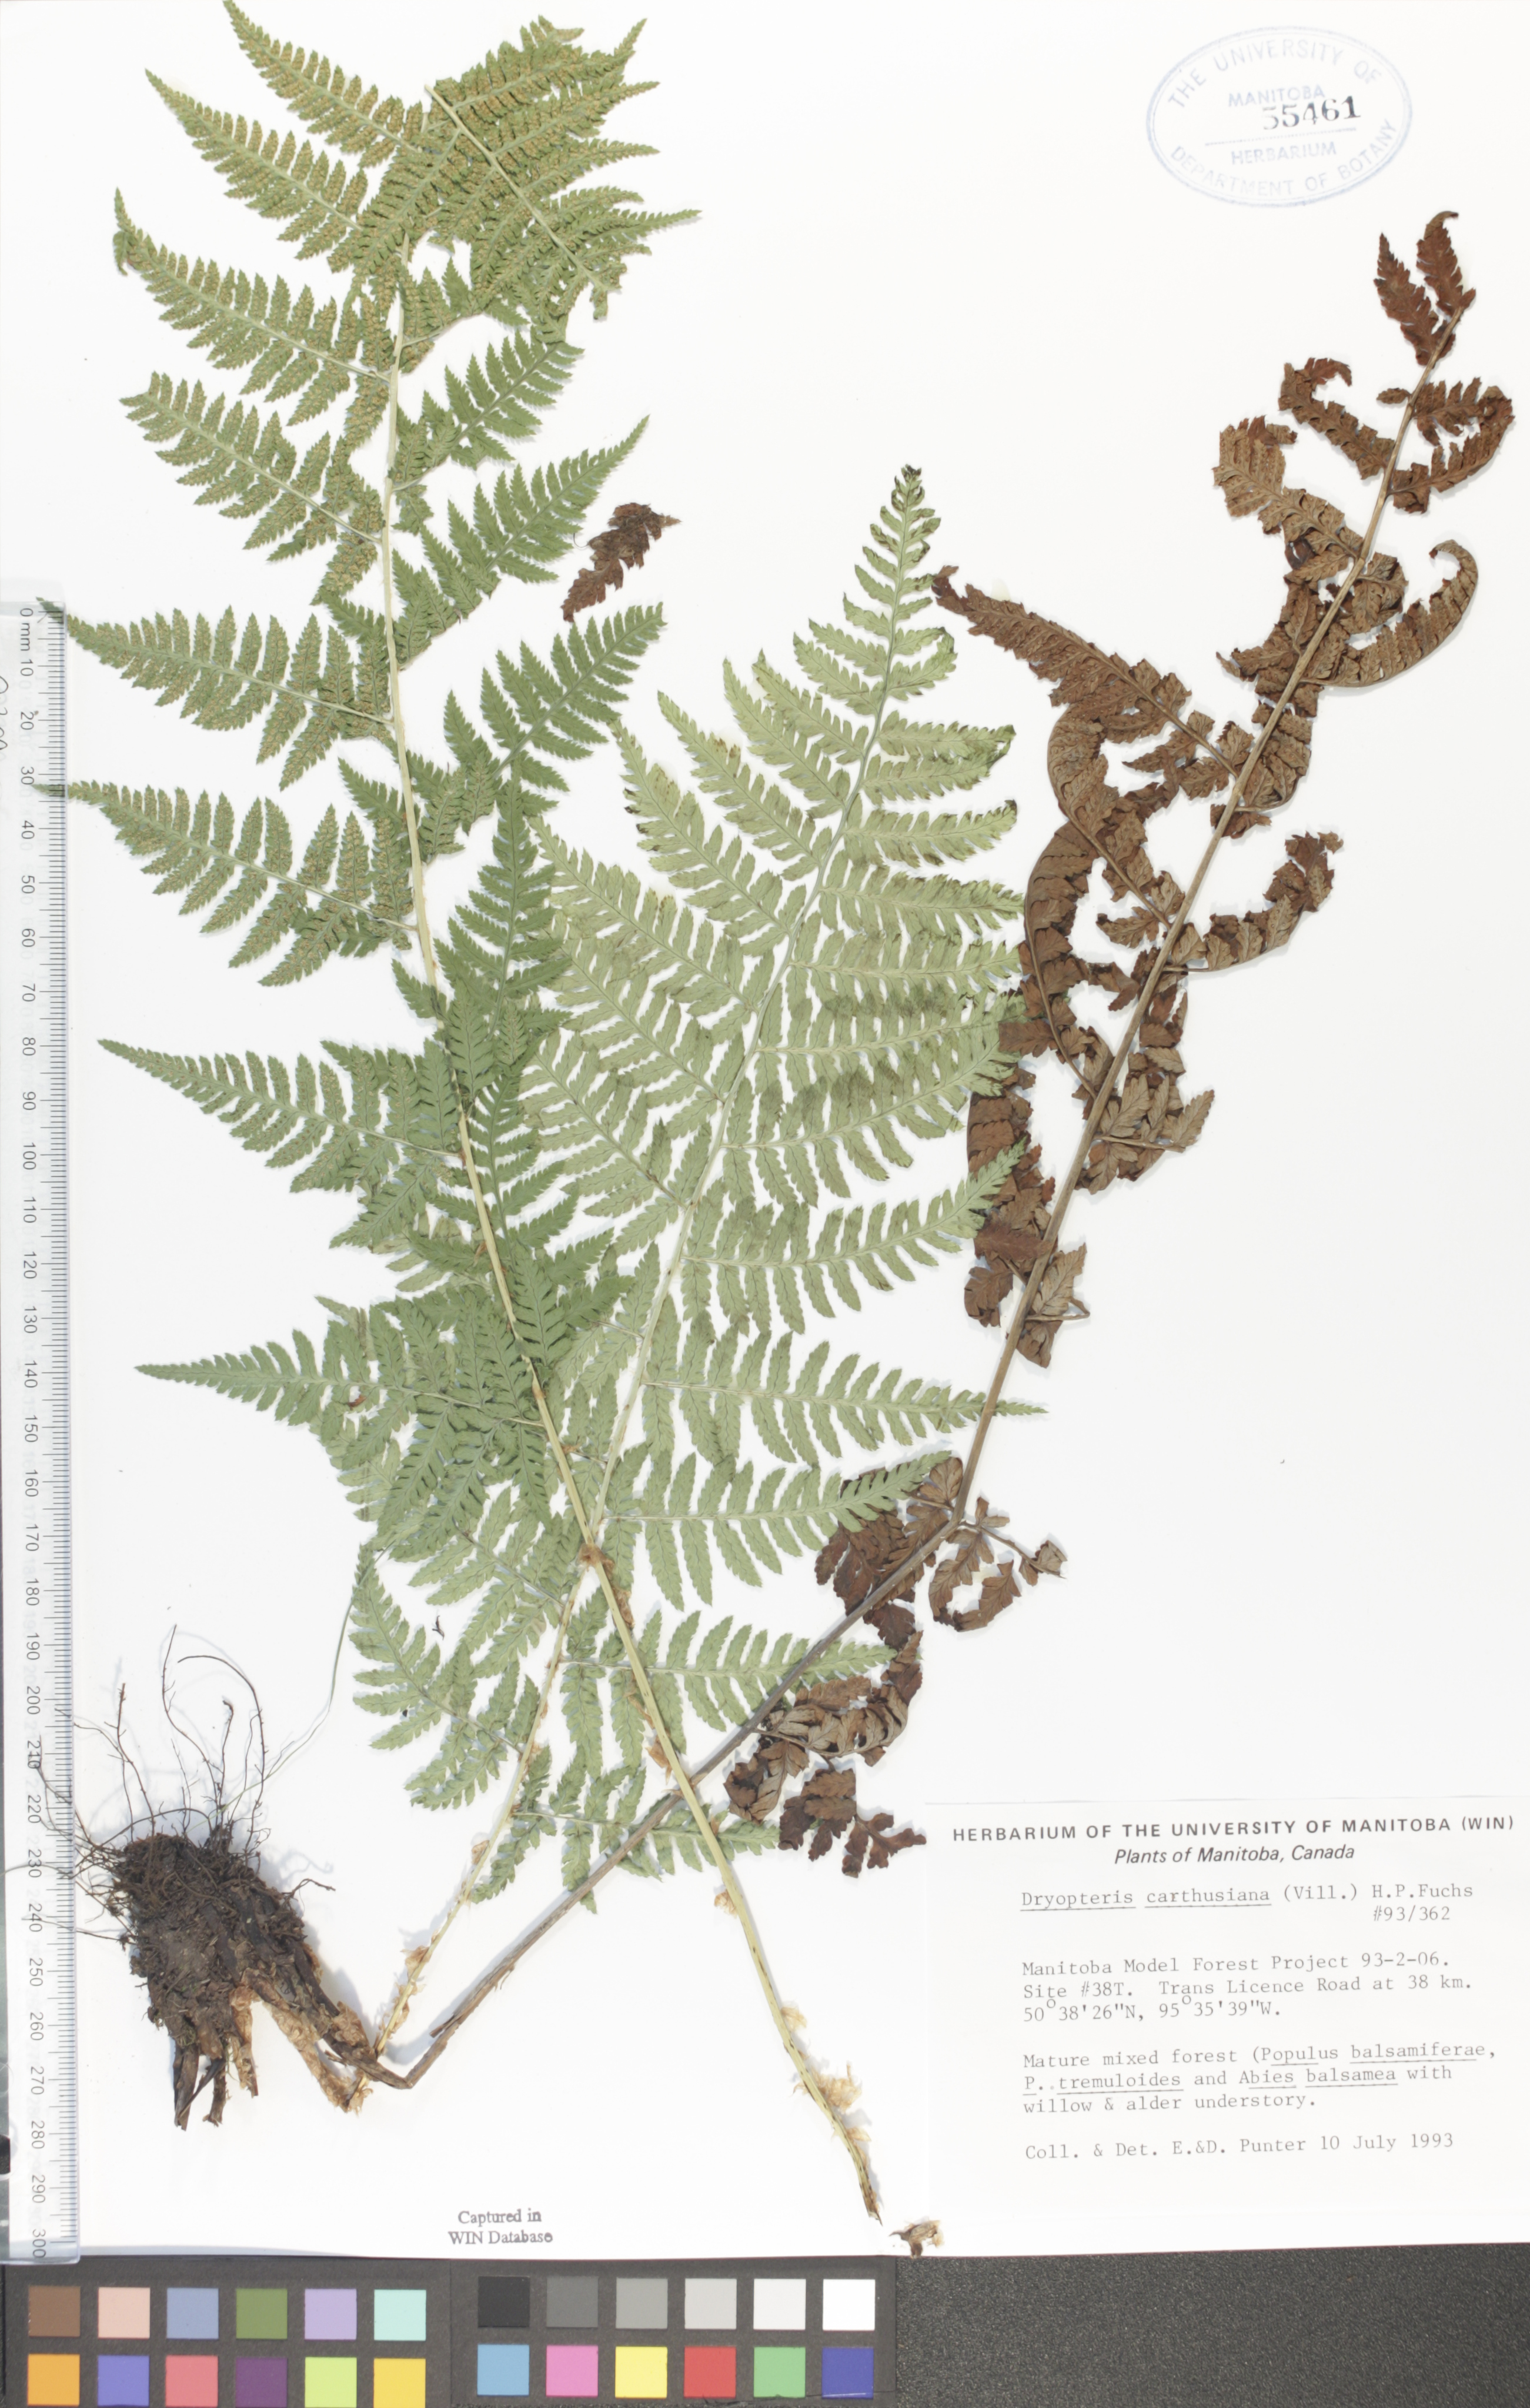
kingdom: Plantae
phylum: Tracheophyta
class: Polypodiopsida
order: Polypodiales
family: Dryopteridaceae
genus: Dryopteris
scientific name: Dryopteris carthusiana
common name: Narrow buckler-fern
